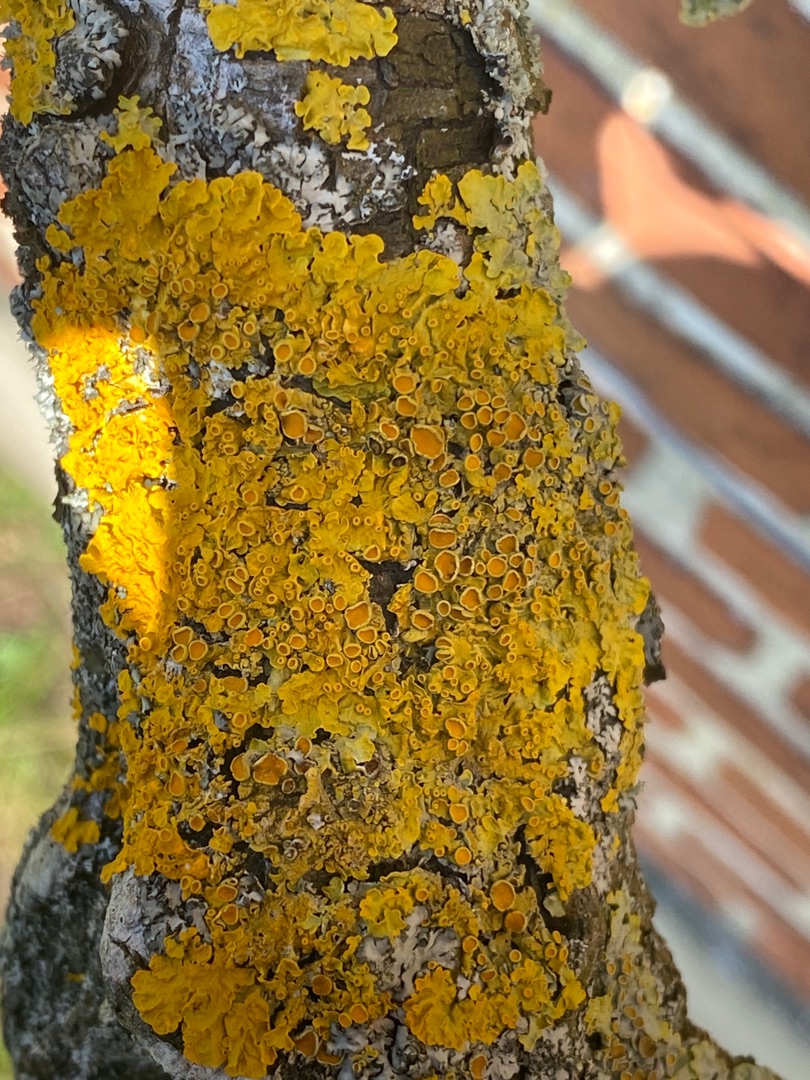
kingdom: Fungi
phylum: Ascomycota
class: Lecanoromycetes
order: Teloschistales
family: Teloschistaceae
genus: Xanthoria
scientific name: Xanthoria parietina
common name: Almindelig væggelav
